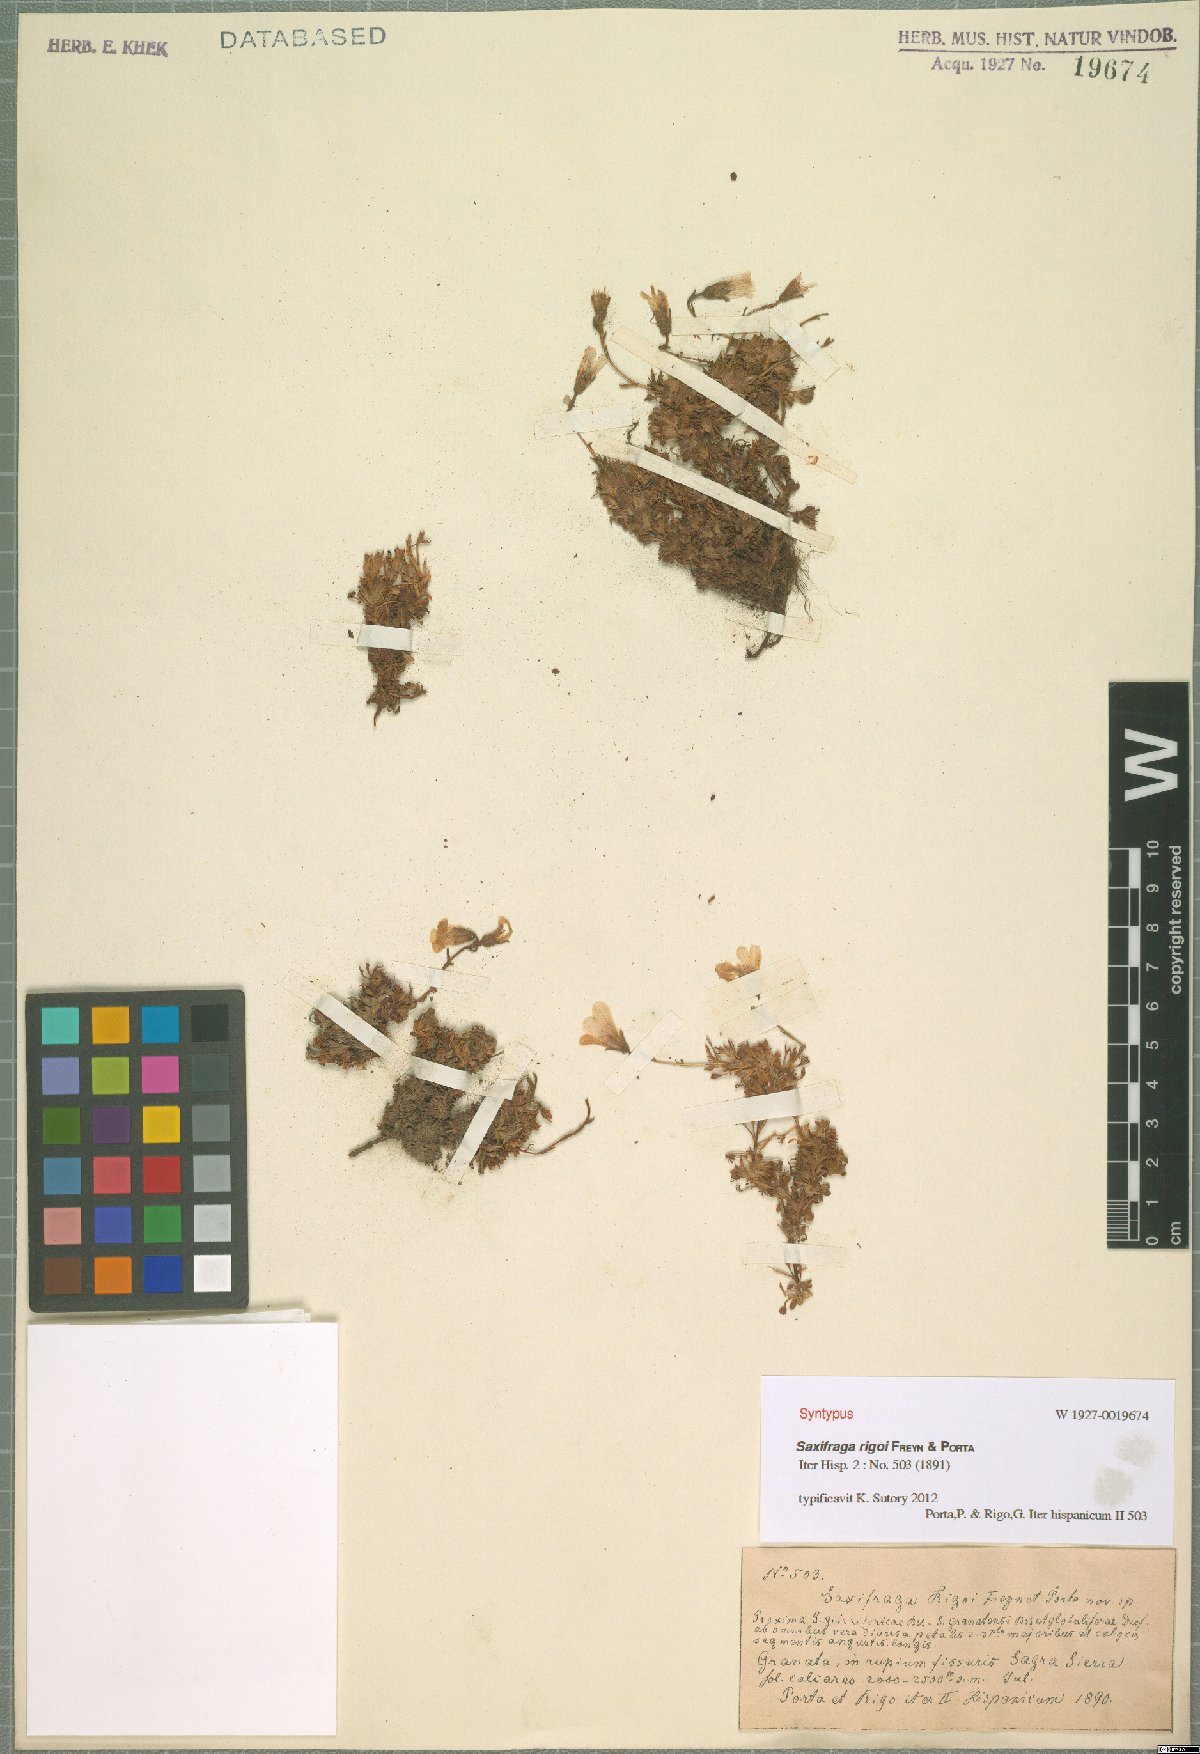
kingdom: Plantae
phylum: Tracheophyta
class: Magnoliopsida
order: Saxifragales
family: Saxifragaceae
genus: Saxifraga
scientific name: Saxifraga rigoi
